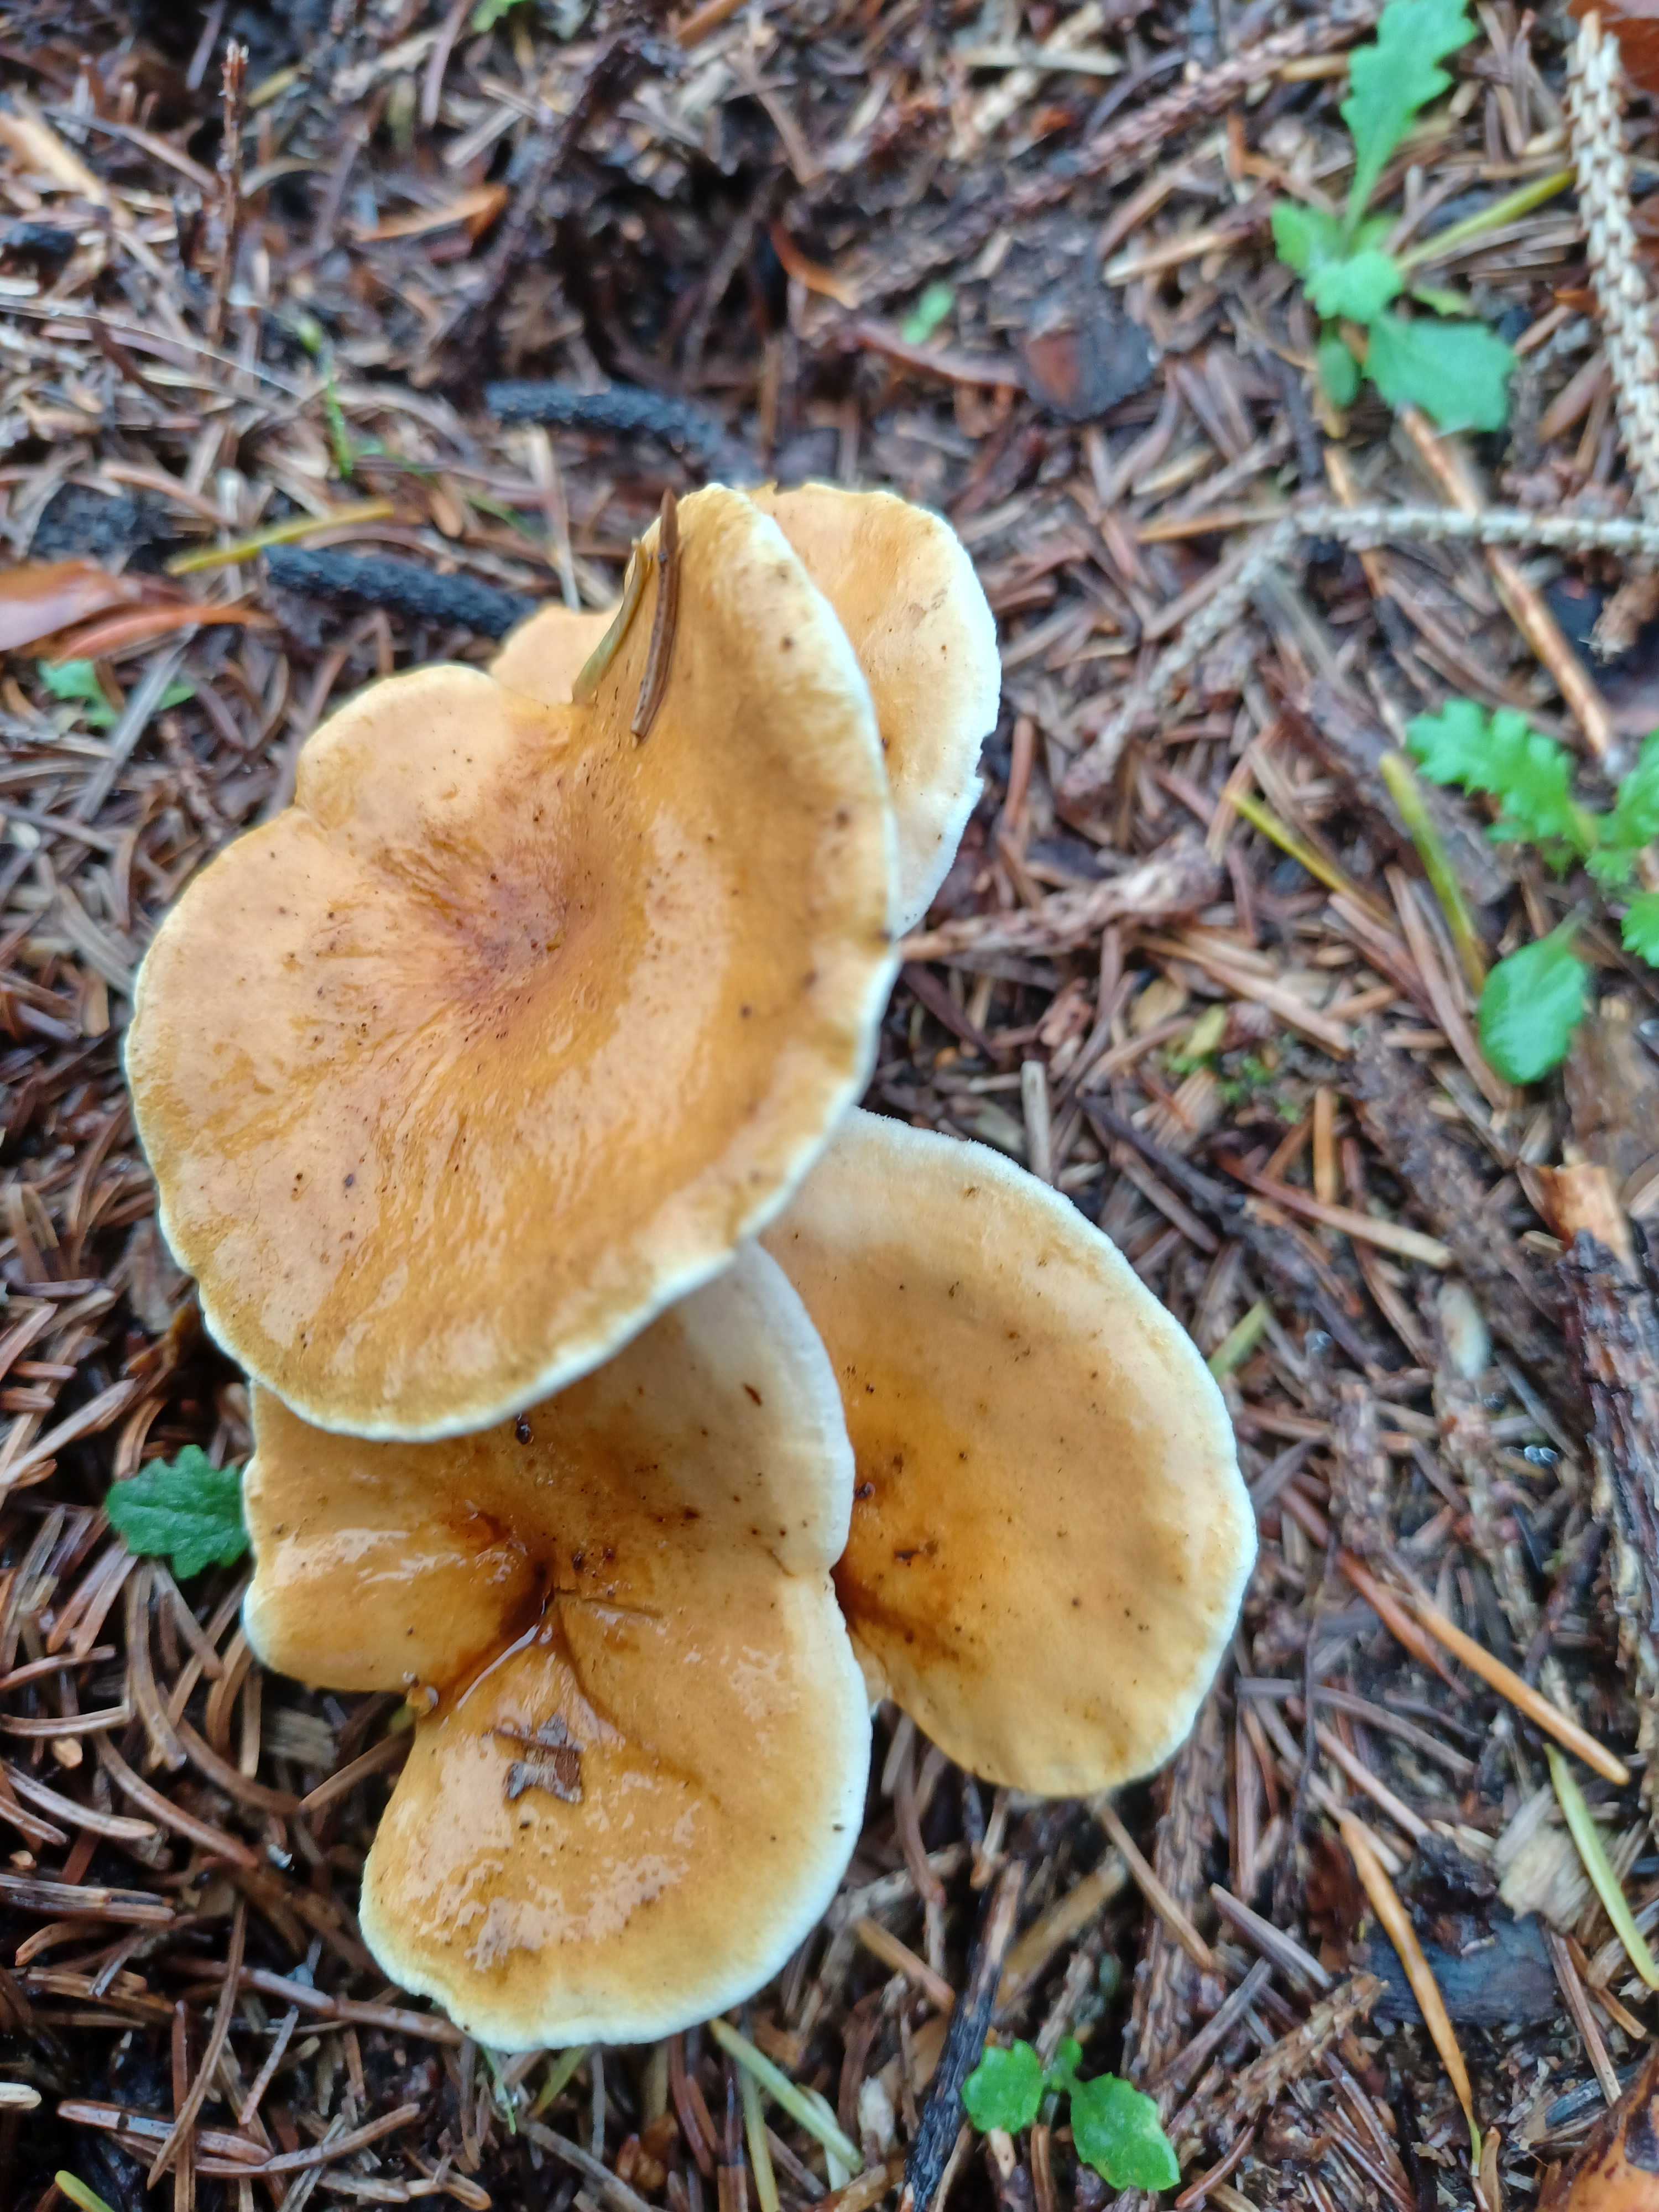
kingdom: Fungi
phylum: Basidiomycota
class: Agaricomycetes
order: Boletales
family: Hygrophoropsidaceae
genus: Hygrophoropsis
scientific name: Hygrophoropsis aurantiaca
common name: almindelig orangekantarel
